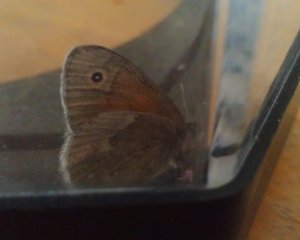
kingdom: Animalia
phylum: Arthropoda
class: Insecta
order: Lepidoptera
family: Nymphalidae
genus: Coenonympha
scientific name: Coenonympha tullia
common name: Large Heath
